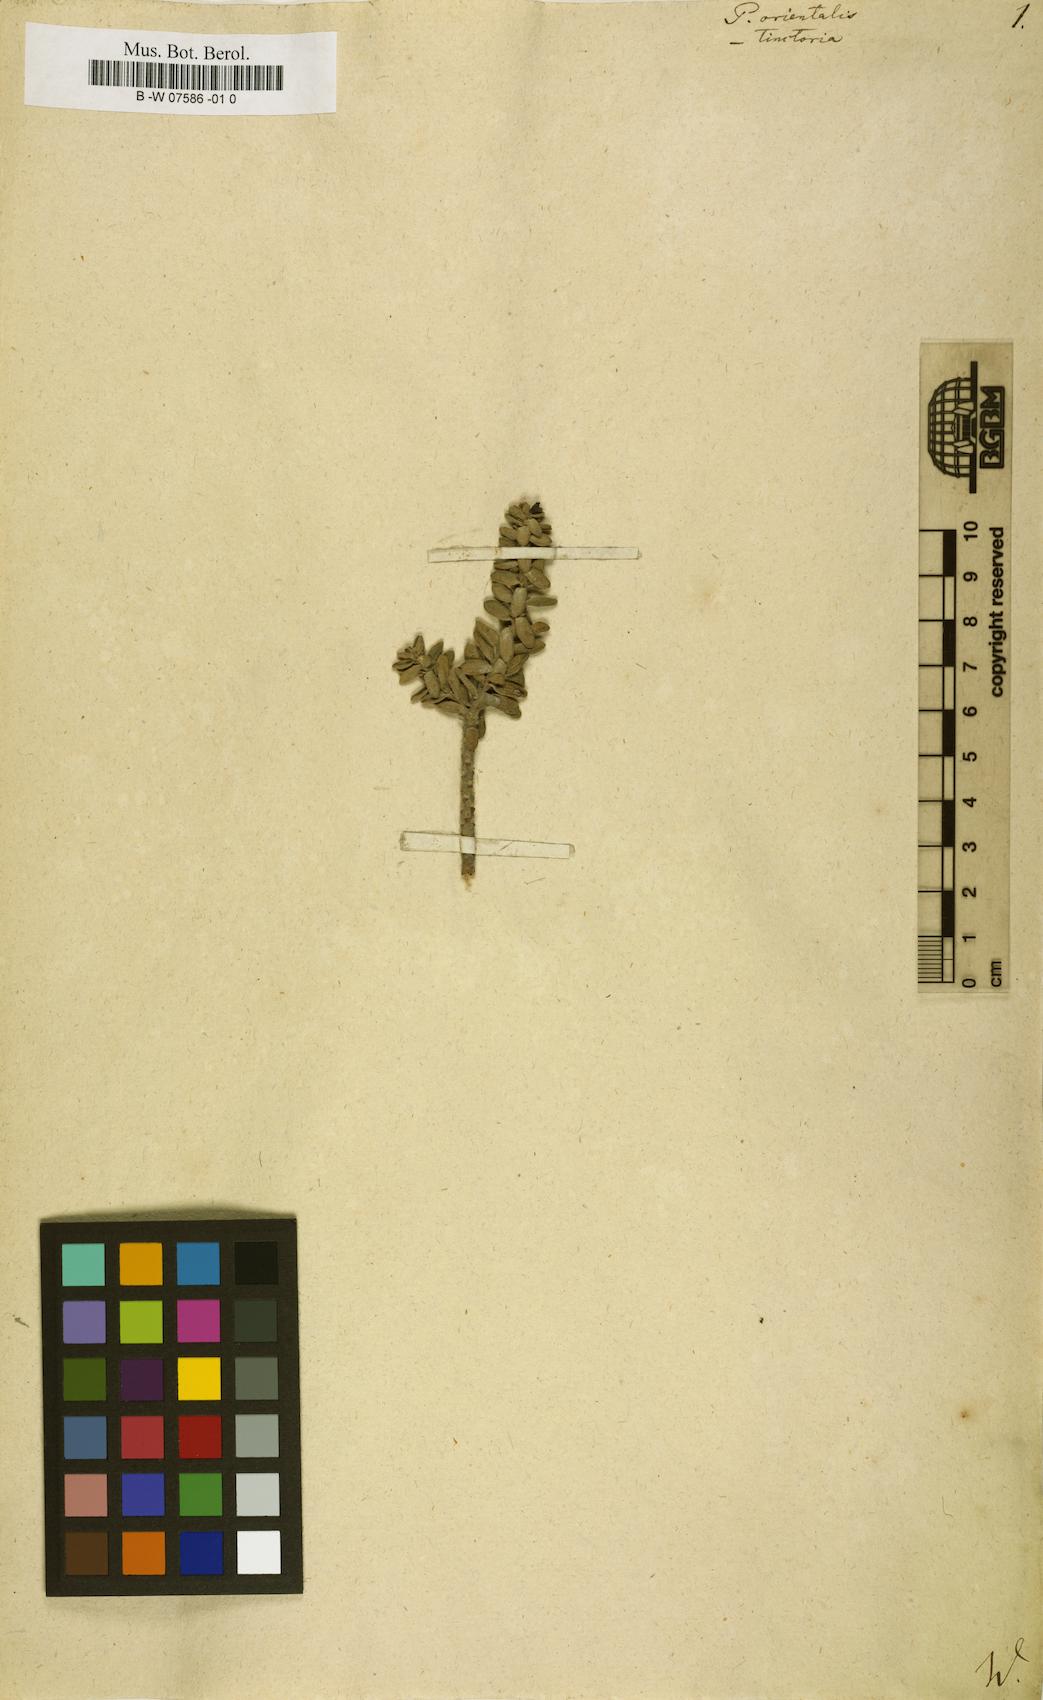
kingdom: Plantae
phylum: Tracheophyta
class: Magnoliopsida
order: Malvales
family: Thymelaeaceae
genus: Thymelaea
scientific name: Thymelaea villosa
